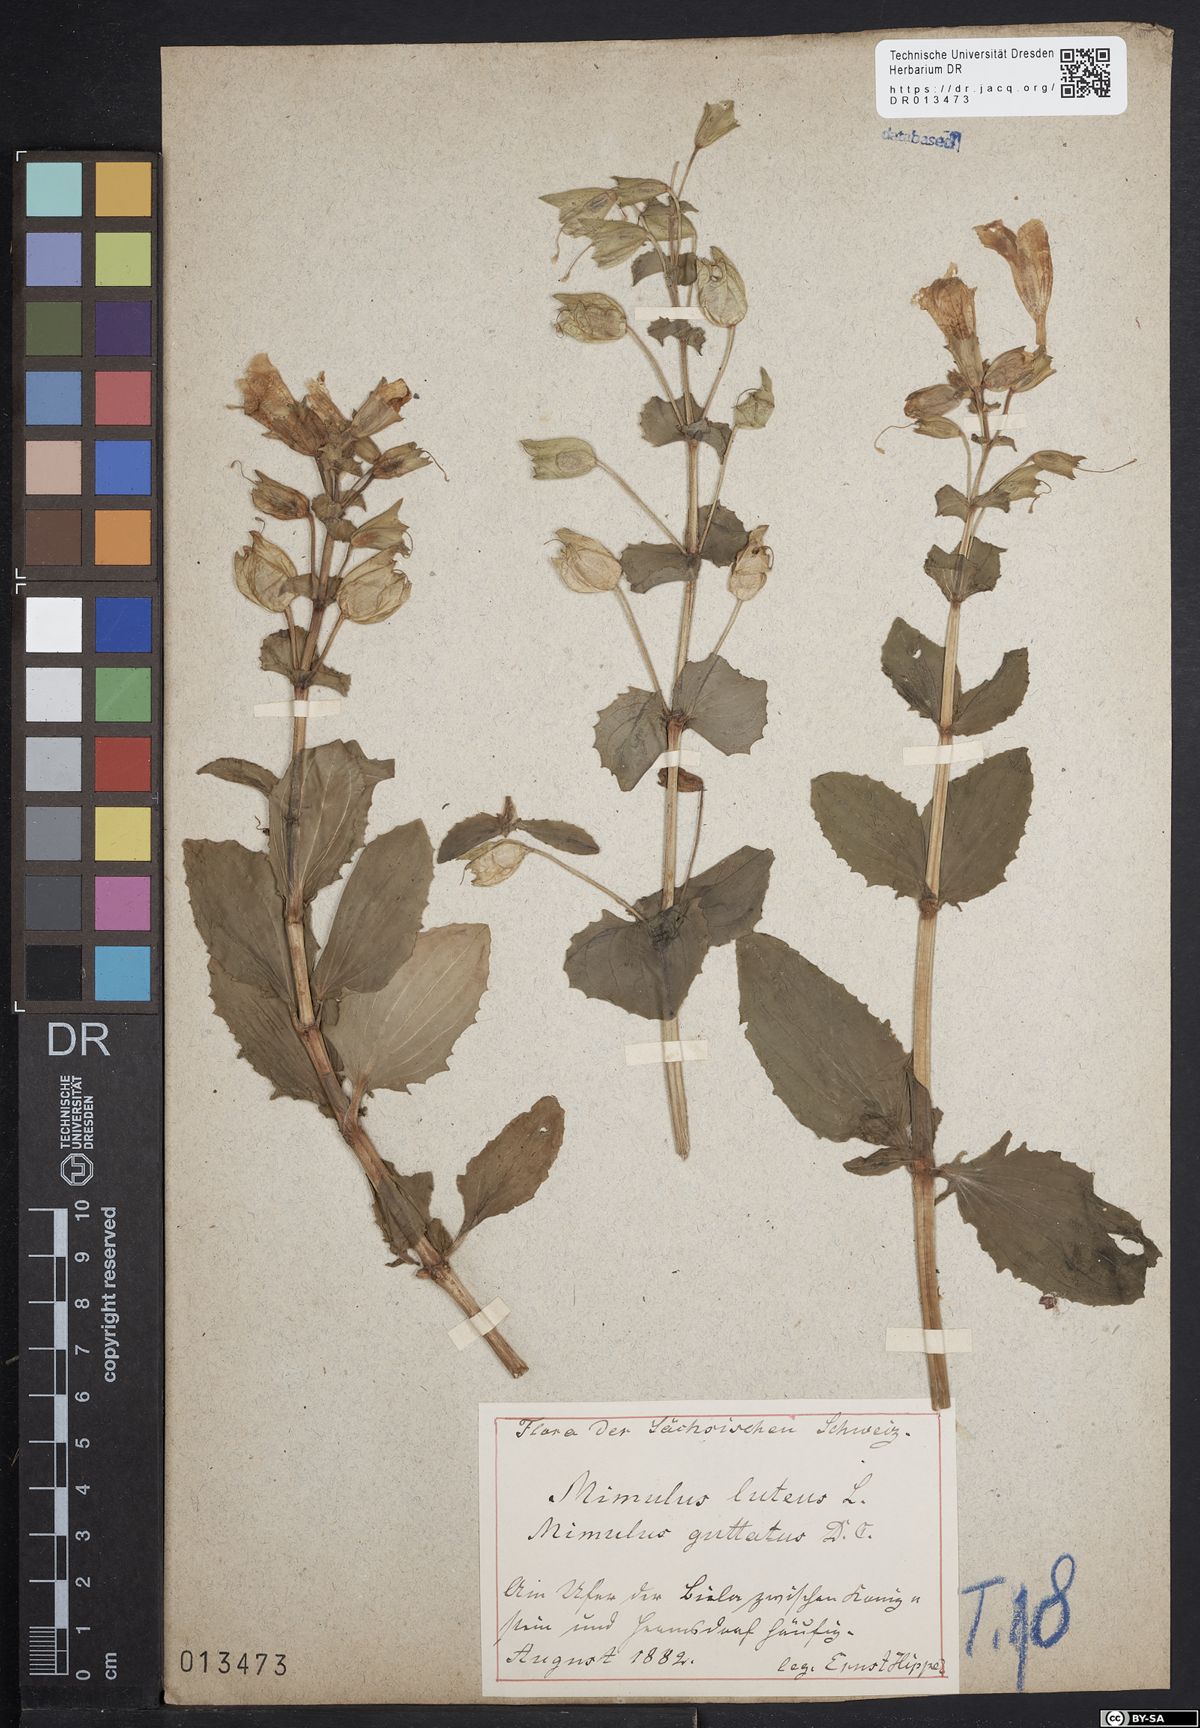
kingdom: Plantae
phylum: Tracheophyta
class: Magnoliopsida
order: Lamiales
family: Phrymaceae
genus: Erythranthe
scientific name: Erythranthe guttata
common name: Monkeyflower
